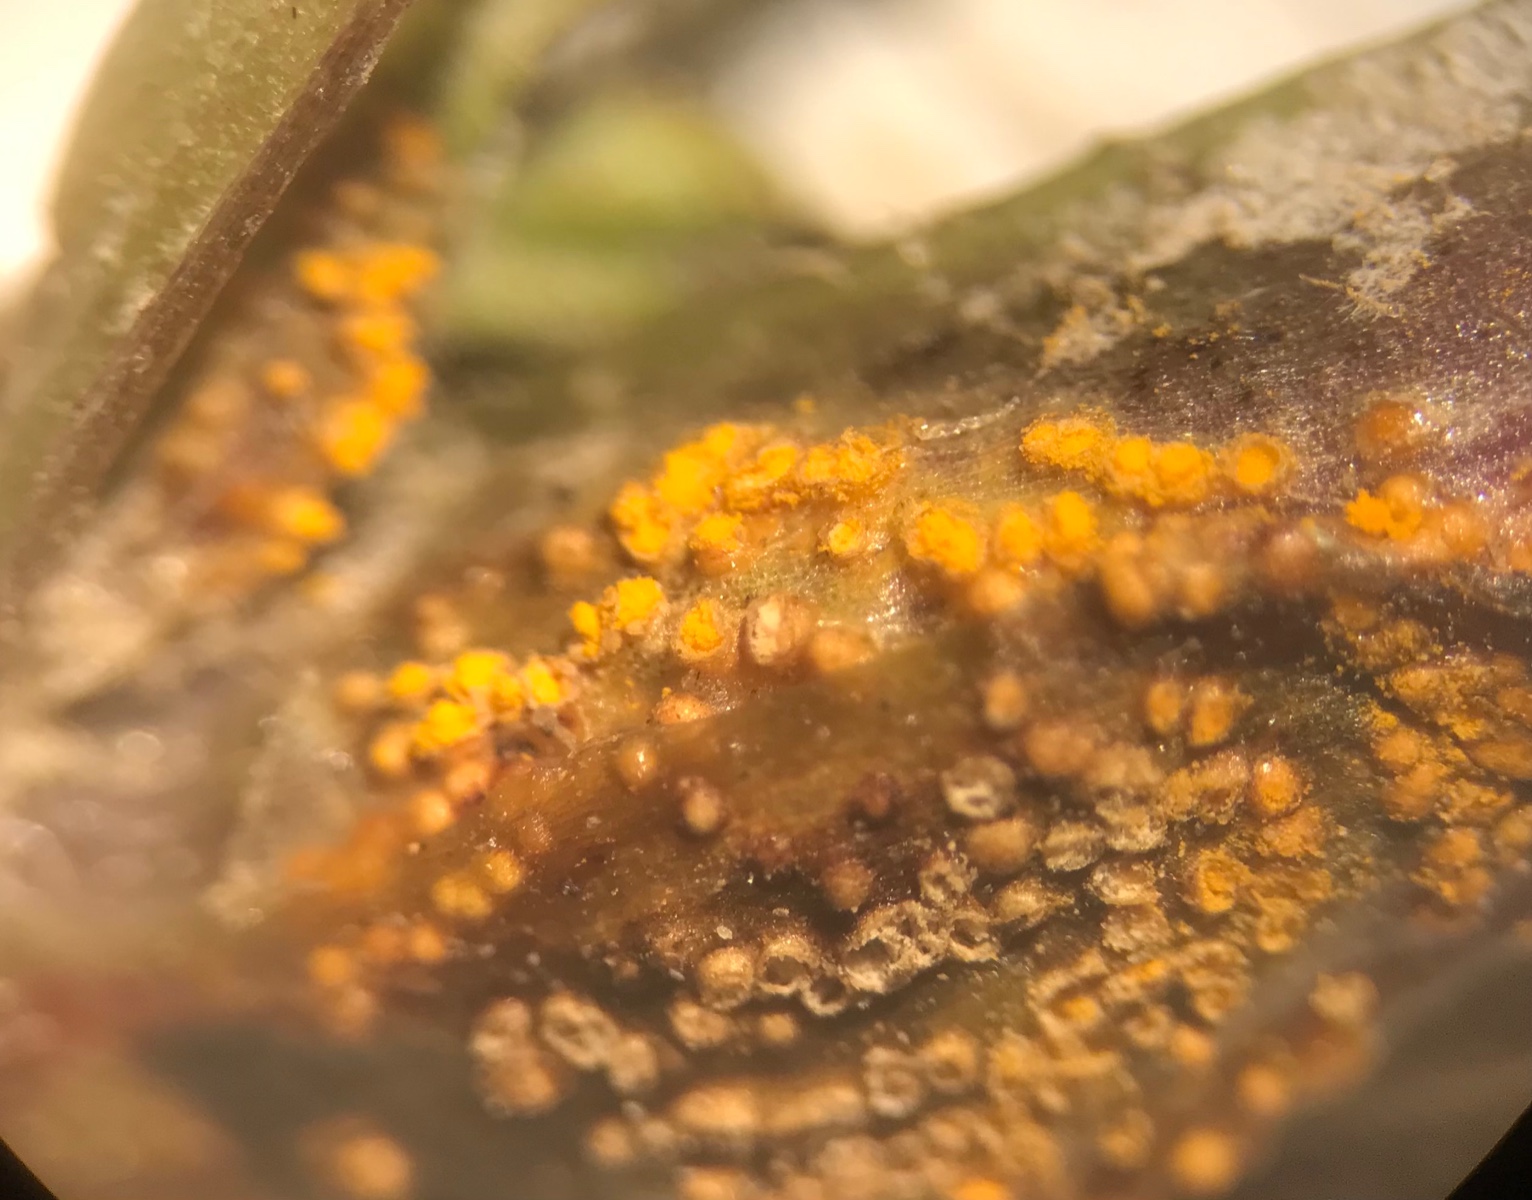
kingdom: Fungi
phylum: Basidiomycota
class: Pucciniomycetes
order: Pucciniales
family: Pucciniaceae
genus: Puccinia
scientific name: Puccinia lagenophorae
